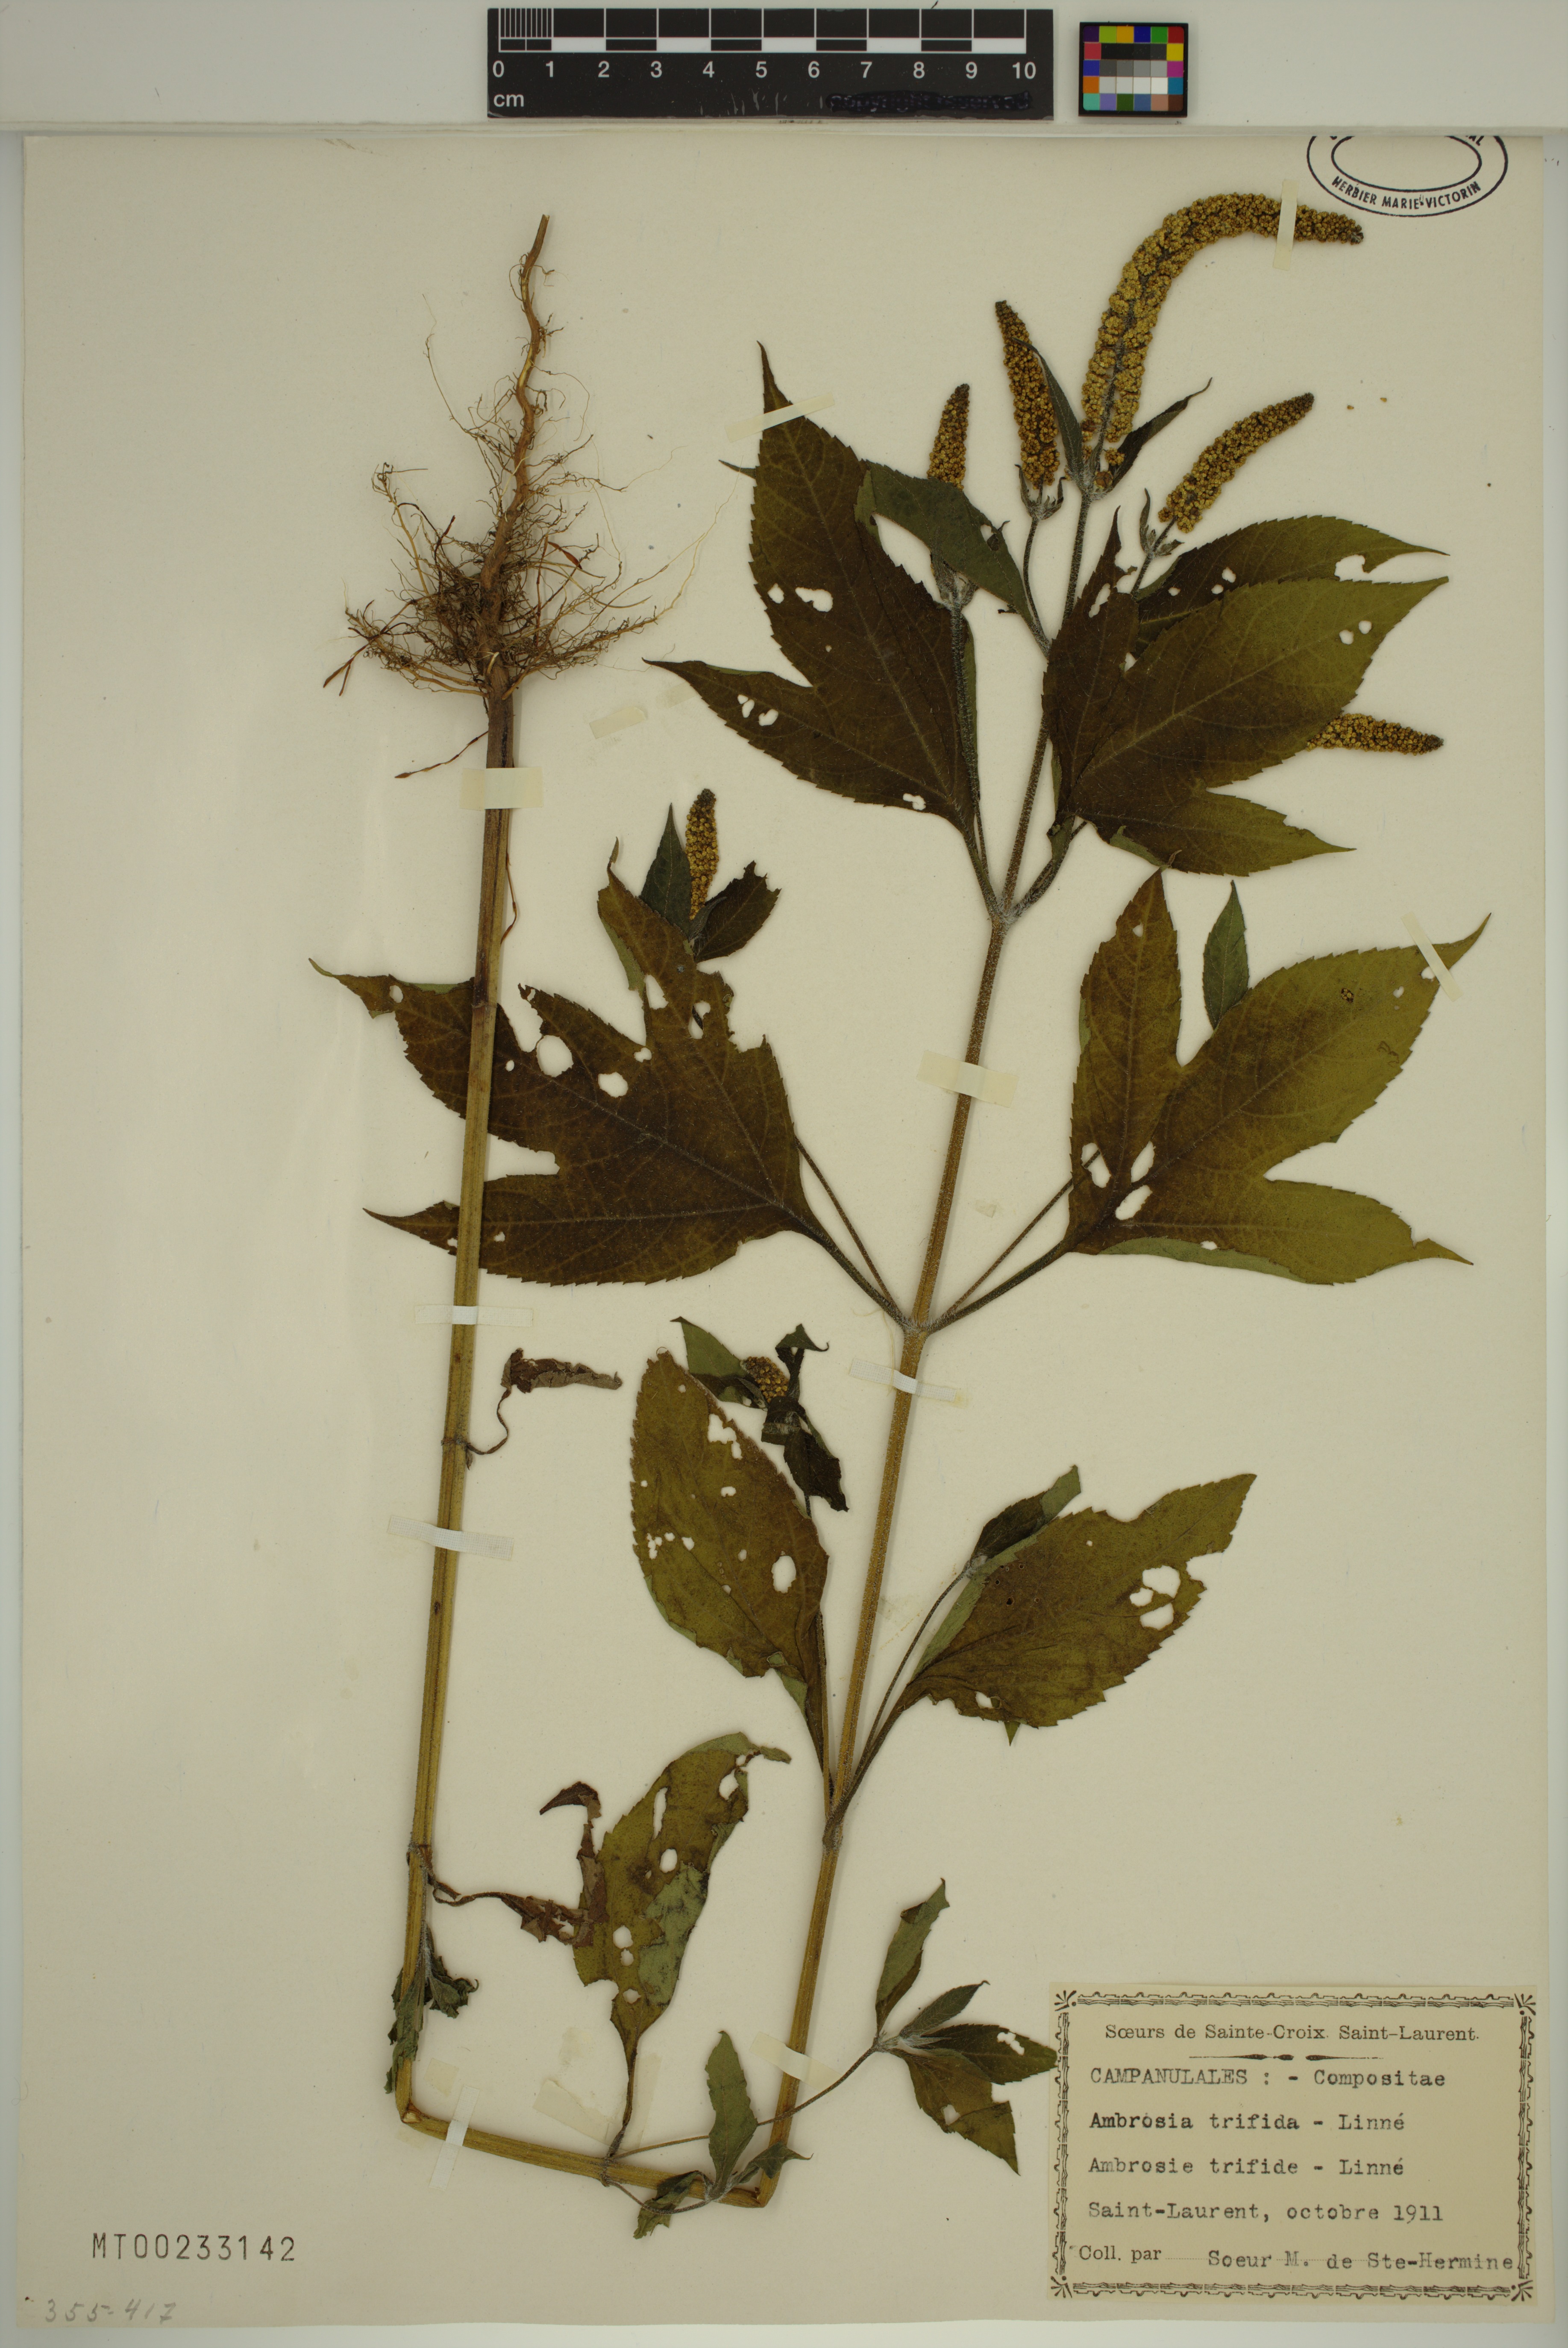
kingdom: Plantae
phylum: Tracheophyta
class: Magnoliopsida
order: Asterales
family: Asteraceae
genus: Ambrosia
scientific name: Ambrosia trifida
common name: Giant ragweed
